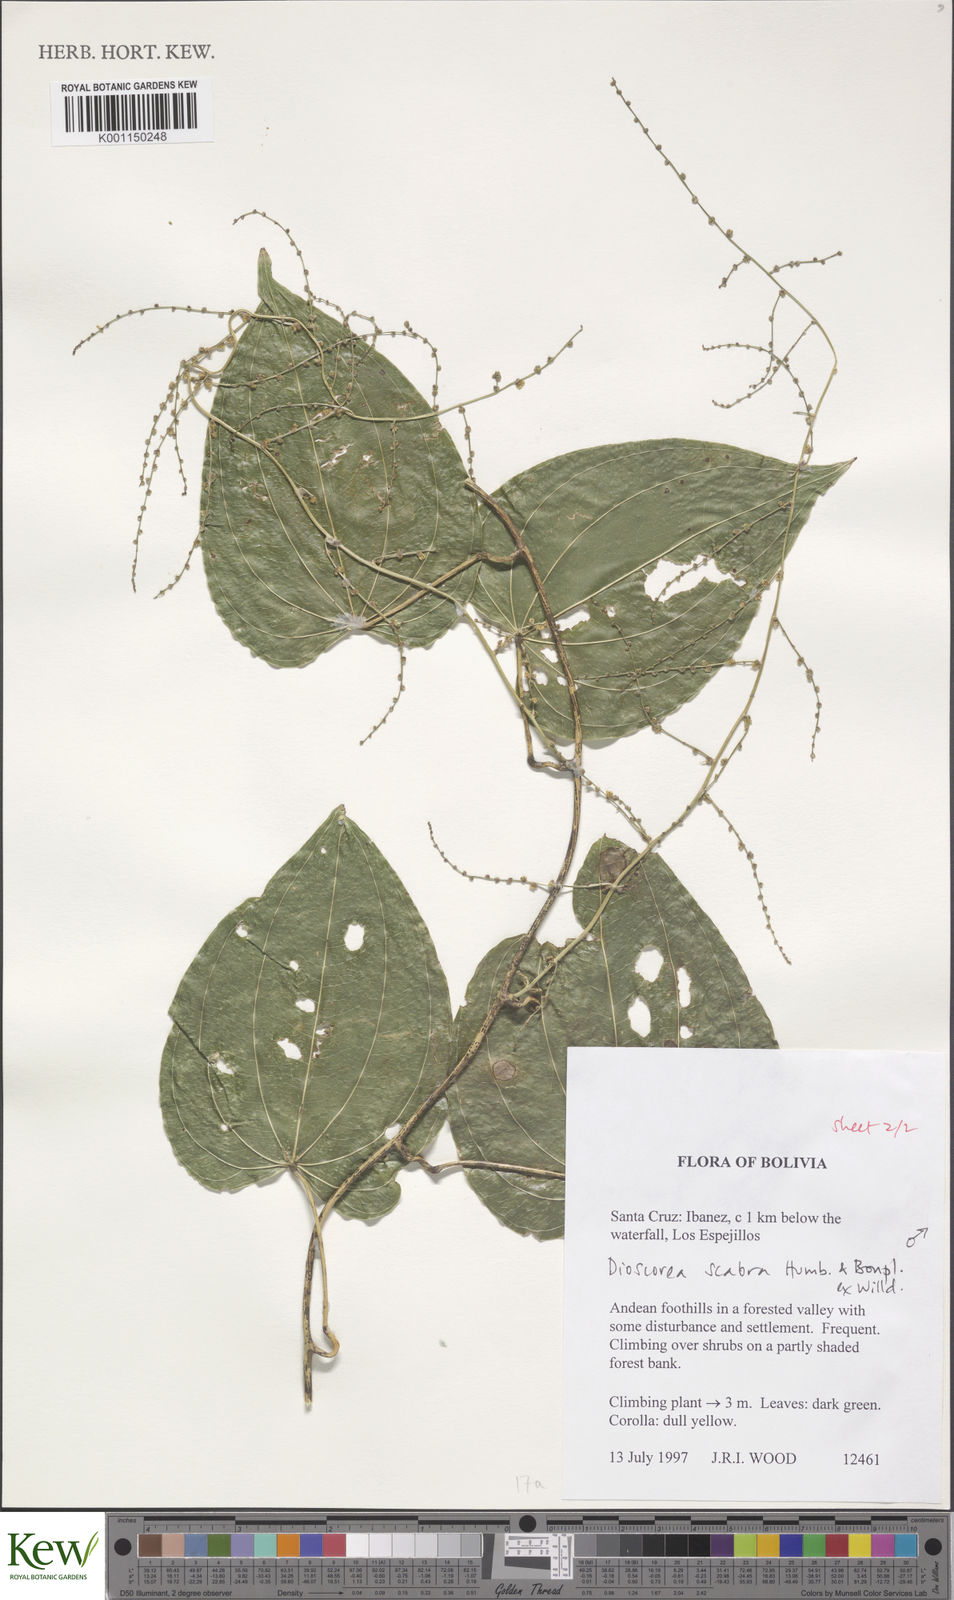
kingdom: Plantae
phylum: Tracheophyta
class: Liliopsida
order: Dioscoreales
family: Dioscoreaceae
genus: Dioscorea
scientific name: Dioscorea scabra
